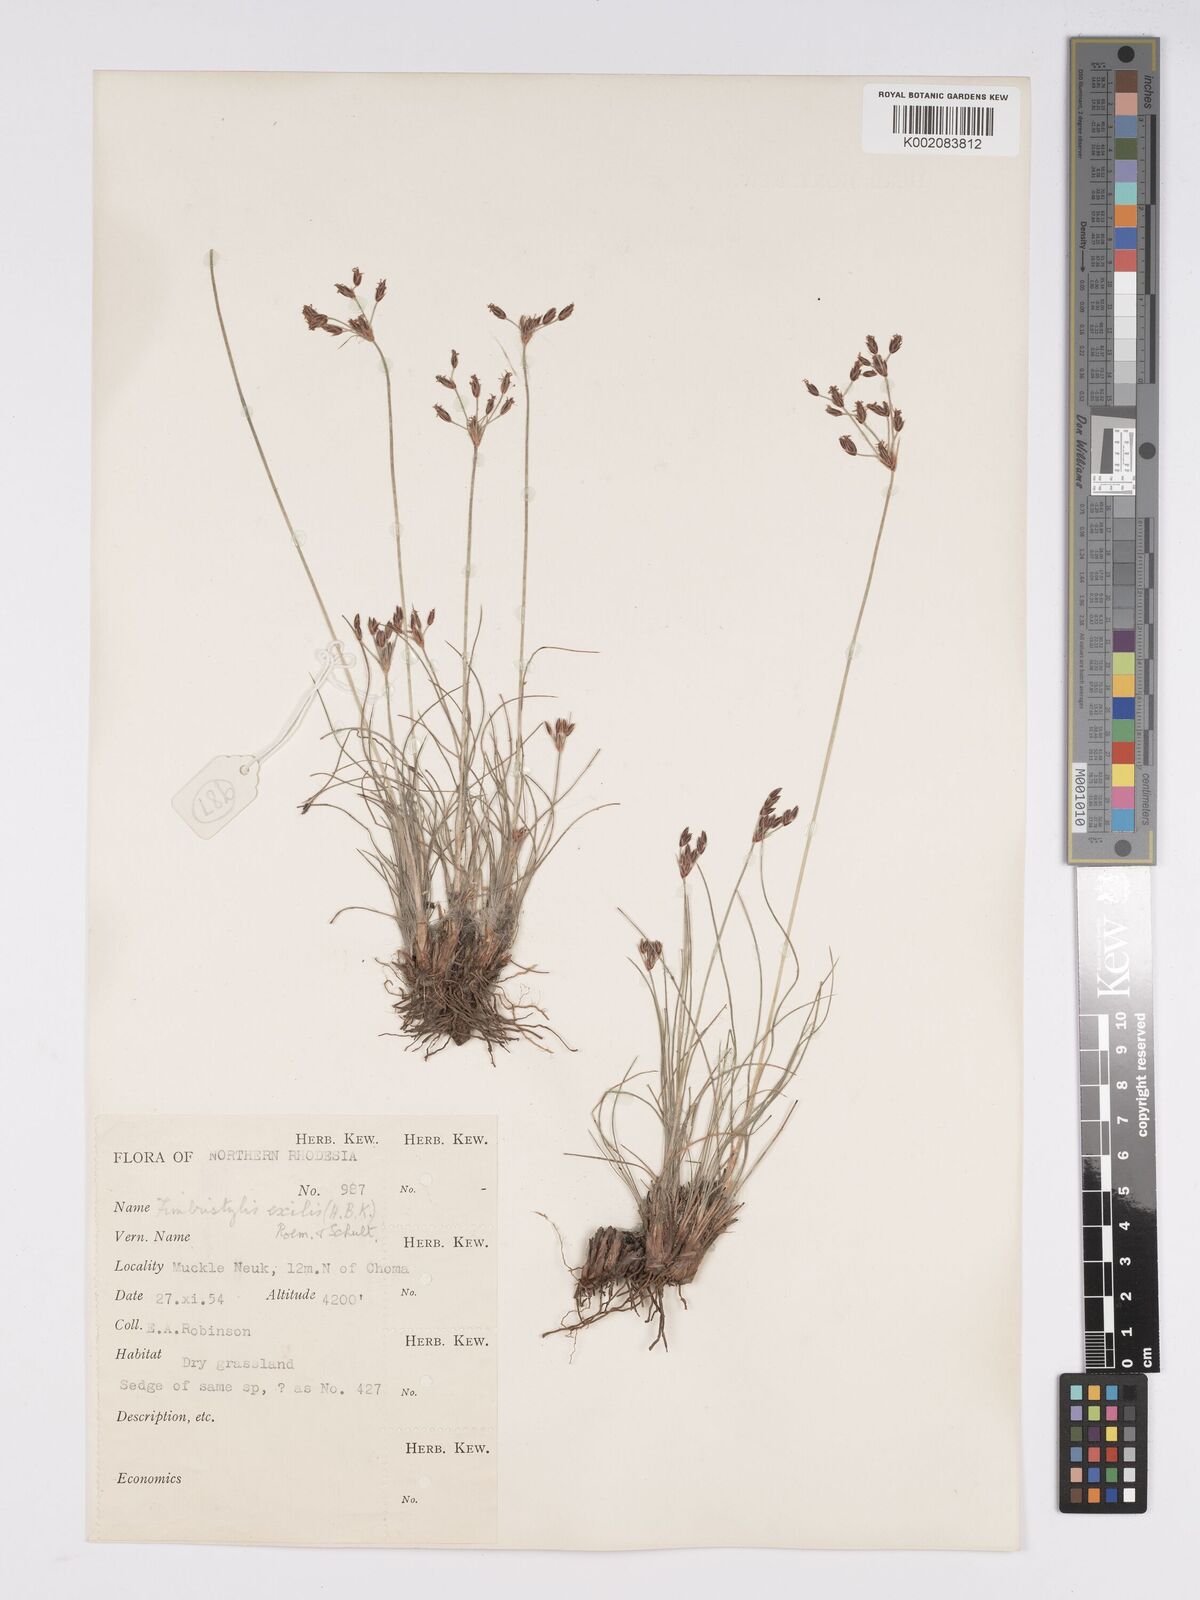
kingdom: Plantae
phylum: Tracheophyta
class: Liliopsida
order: Poales
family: Cyperaceae
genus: Bulbostylis
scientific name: Bulbostylis hispidula
